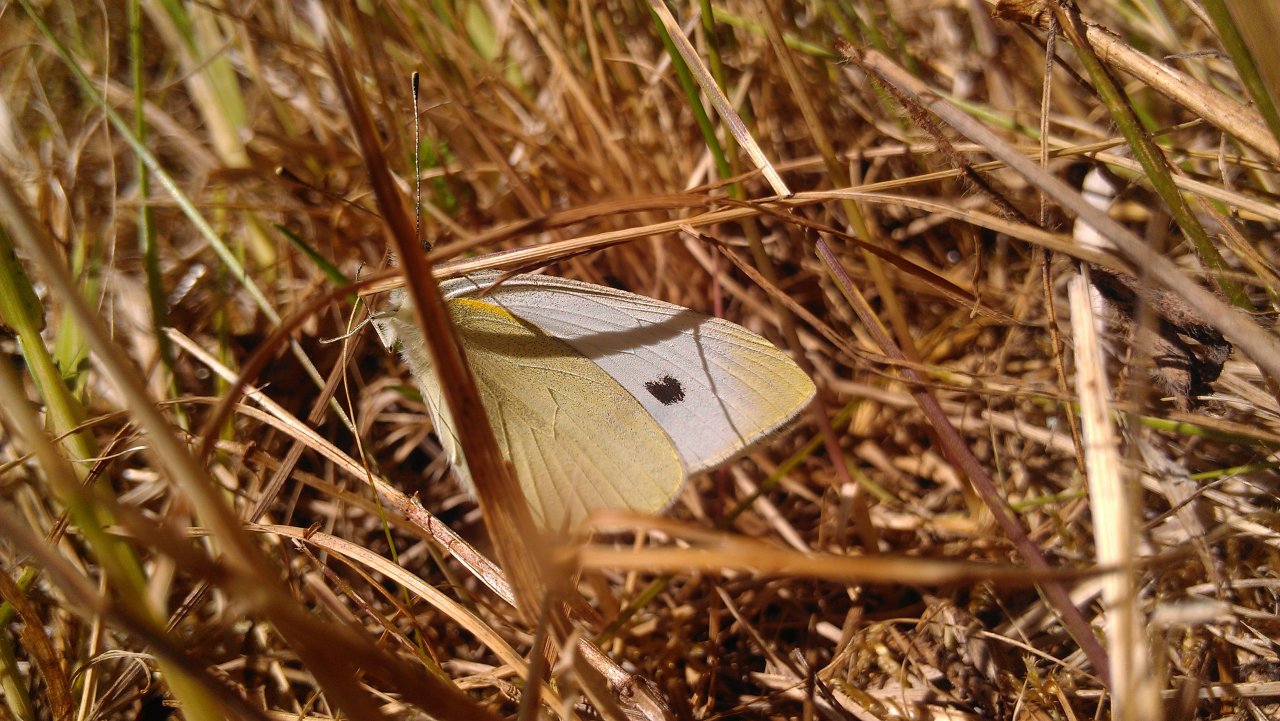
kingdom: Animalia
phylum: Arthropoda
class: Insecta
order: Lepidoptera
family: Pieridae
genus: Pieris
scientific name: Pieris rapae
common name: Cabbage White
